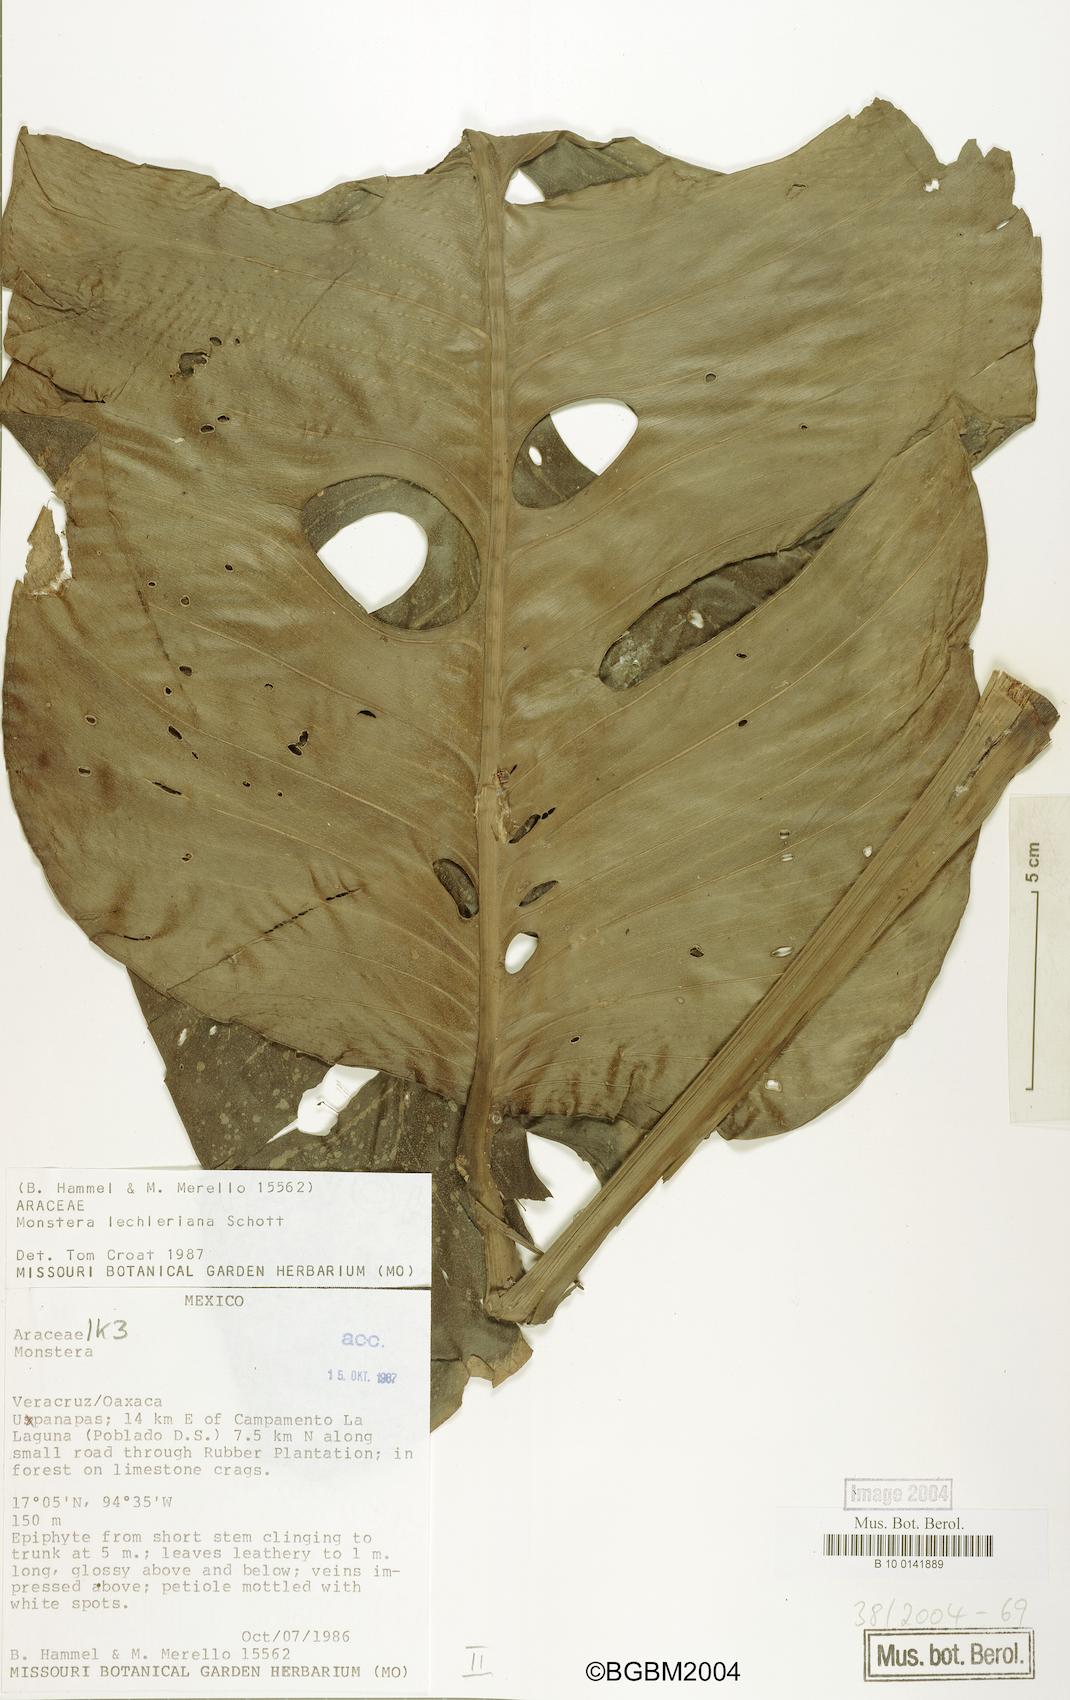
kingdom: Plantae
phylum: Tracheophyta
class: Liliopsida
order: Alismatales
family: Araceae
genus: Monstera
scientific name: Monstera lechleriana
